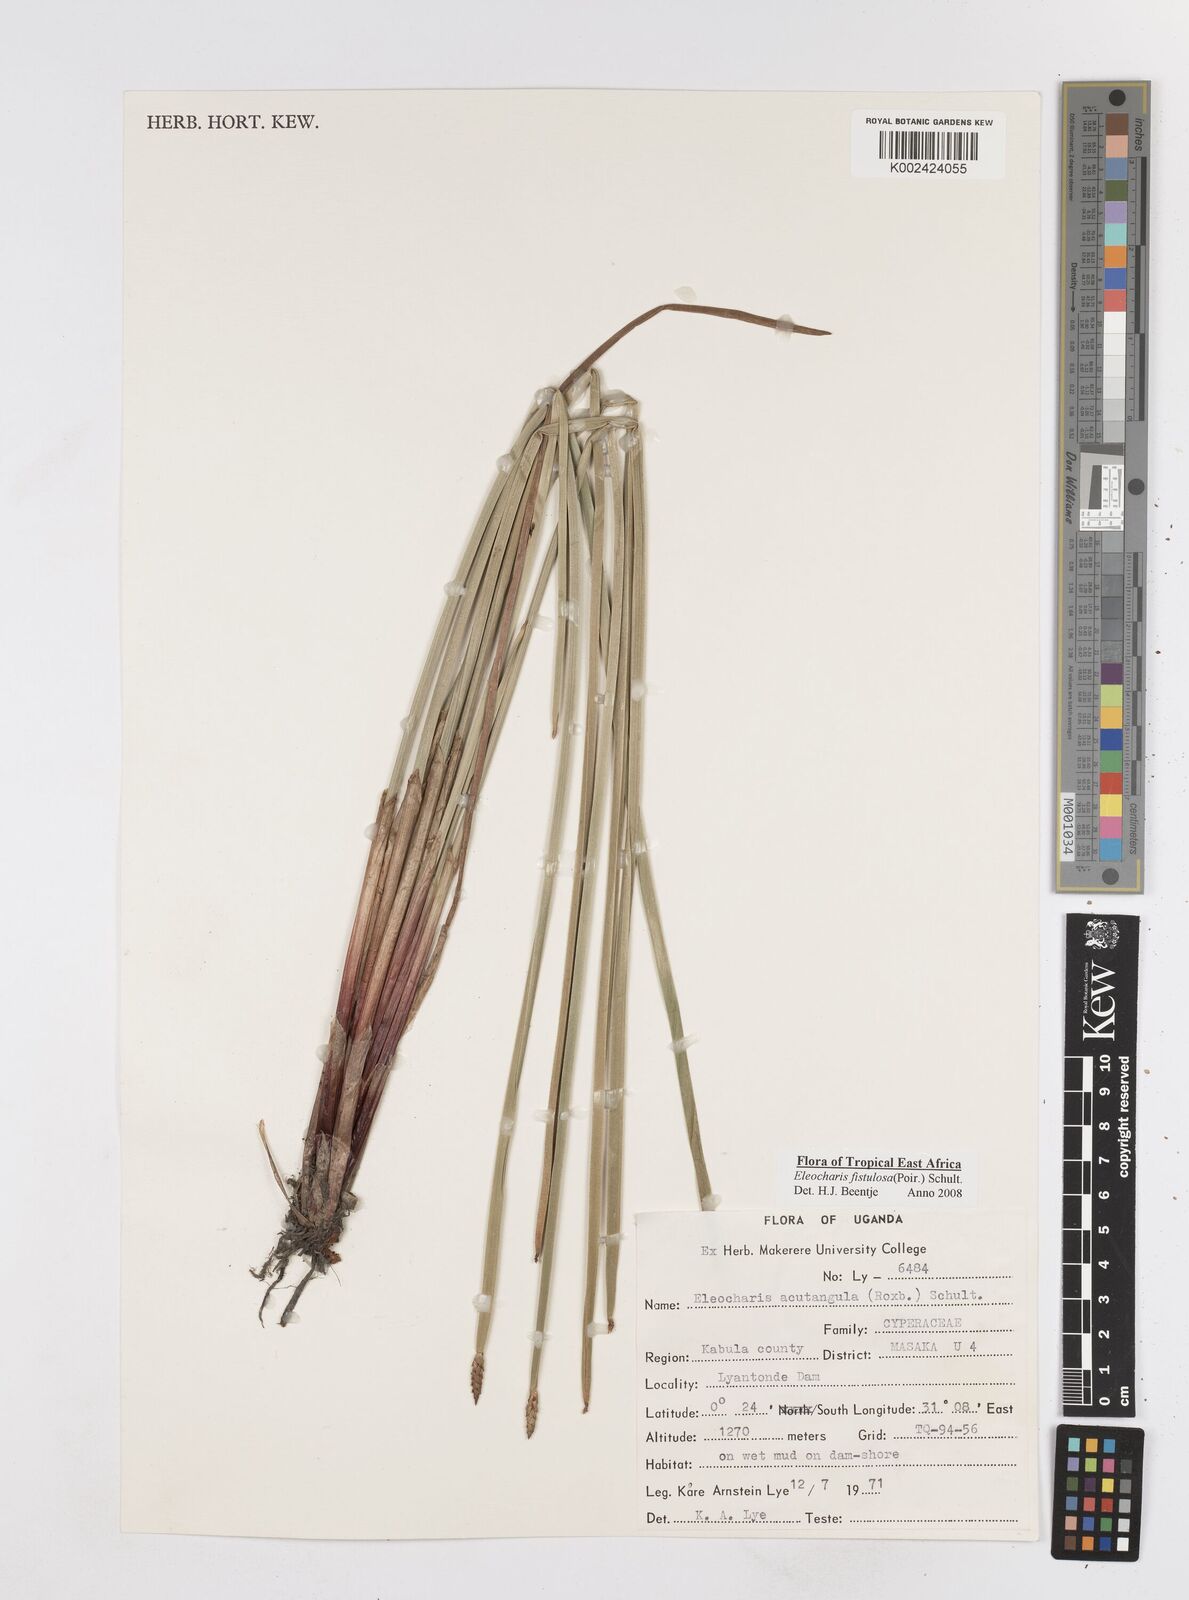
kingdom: Plantae
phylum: Tracheophyta
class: Liliopsida
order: Poales
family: Cyperaceae
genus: Eleocharis
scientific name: Eleocharis acutangula
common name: Acute spikerush
